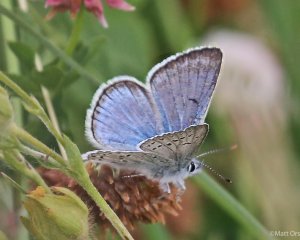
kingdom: Animalia
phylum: Arthropoda
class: Insecta
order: Lepidoptera
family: Lycaenidae
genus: Plebejus
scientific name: Plebejus saepiolus
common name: Greenish Blue
